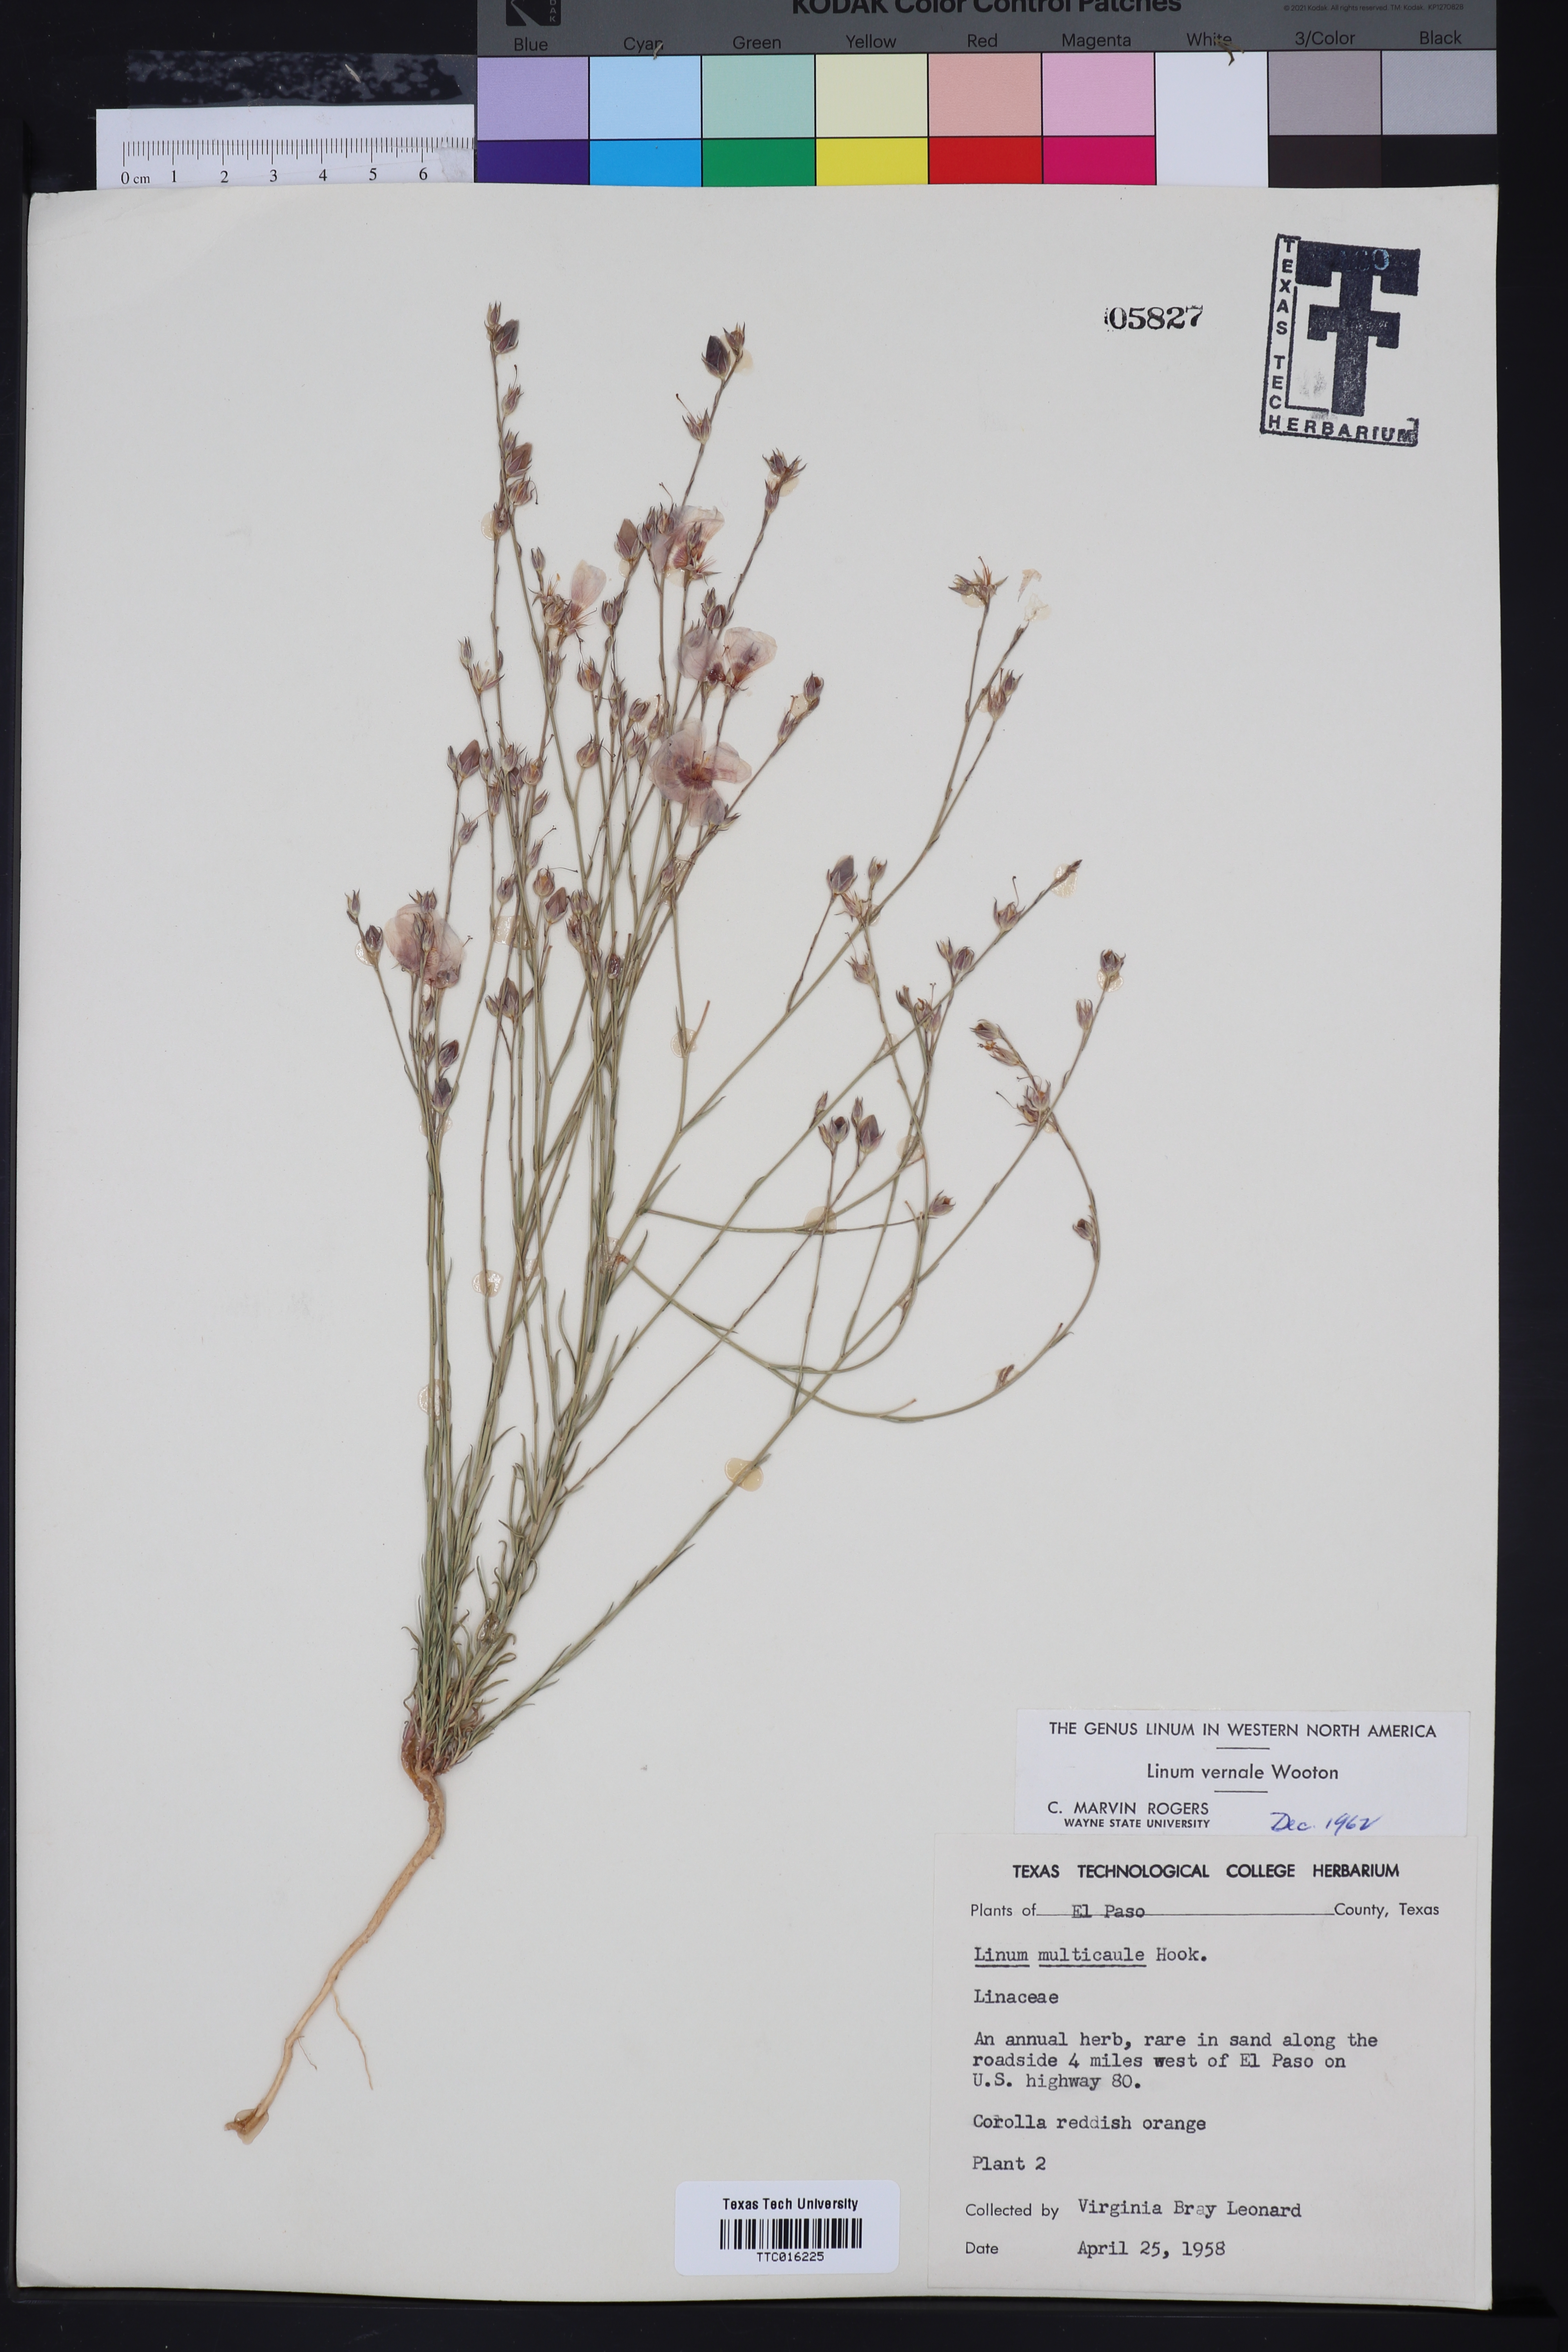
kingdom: Plantae
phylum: Tracheophyta
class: Magnoliopsida
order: Malpighiales
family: Linaceae
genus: Linum
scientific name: Linum vernale
